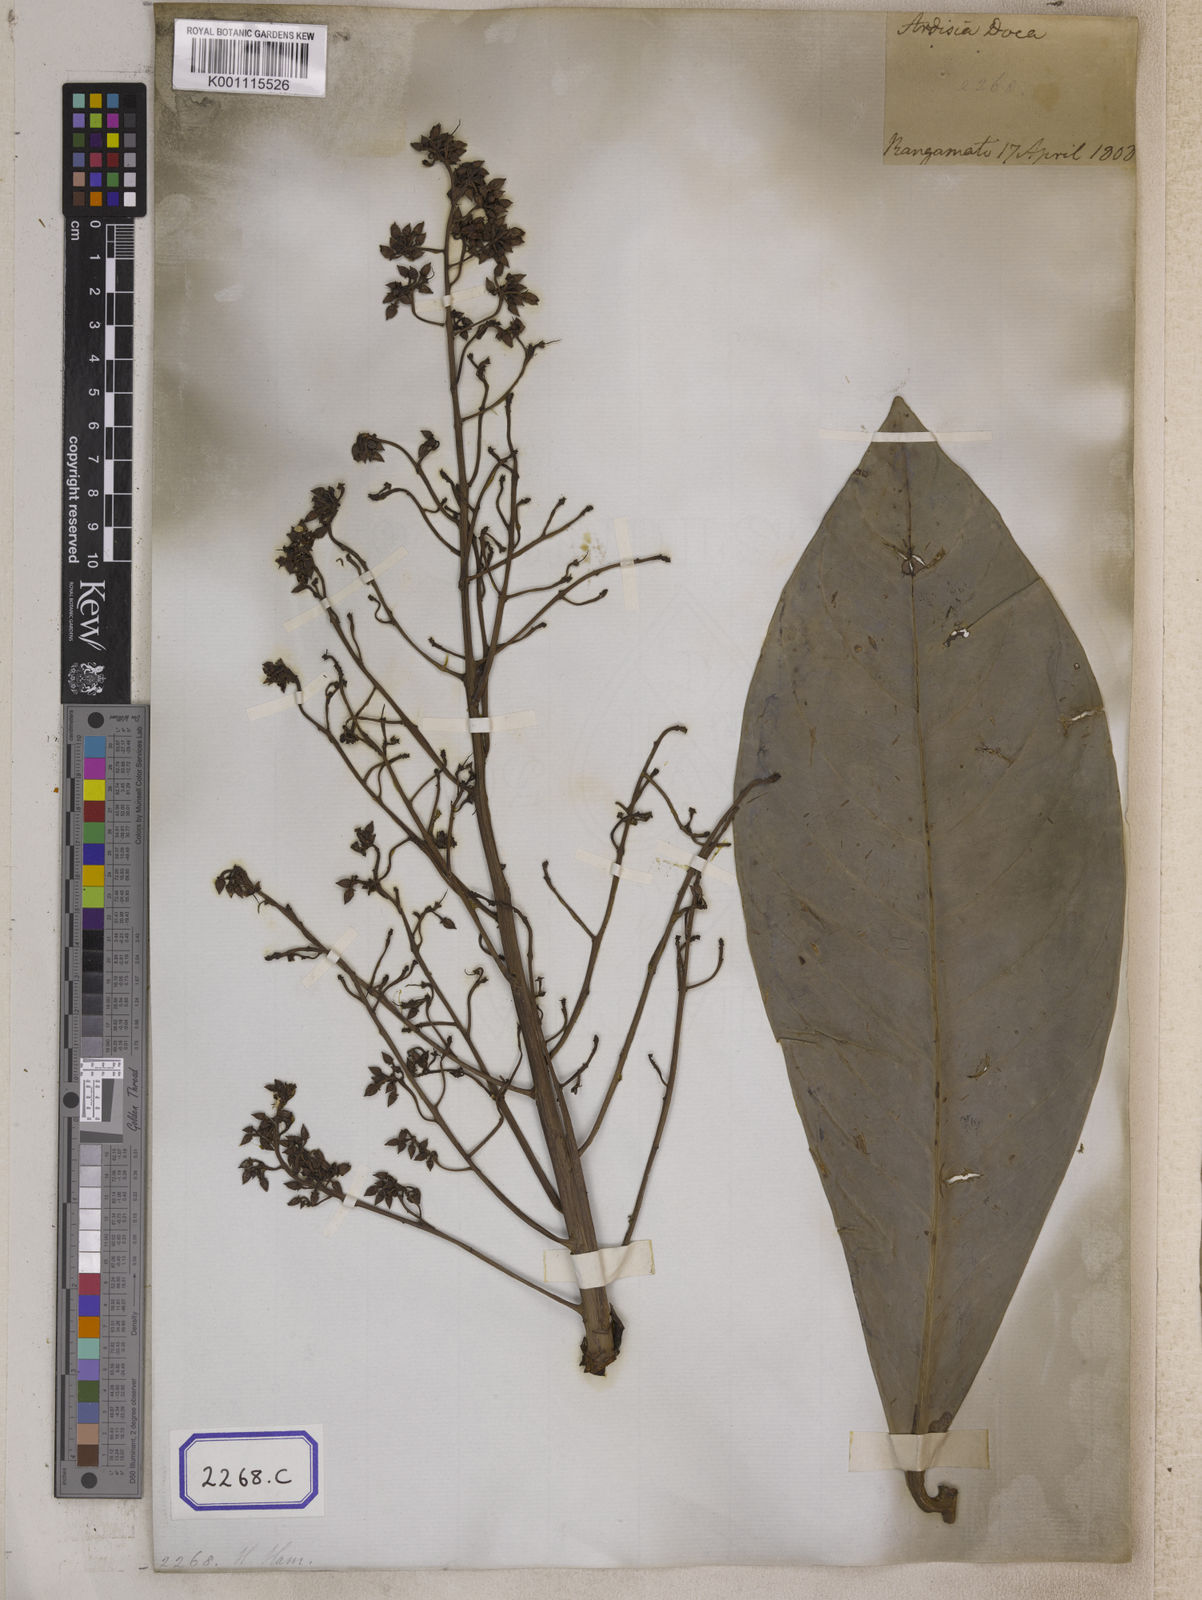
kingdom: Plantae
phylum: Tracheophyta
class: Magnoliopsida
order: Ericales
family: Primulaceae
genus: Ardisia
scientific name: Ardisia colorata
